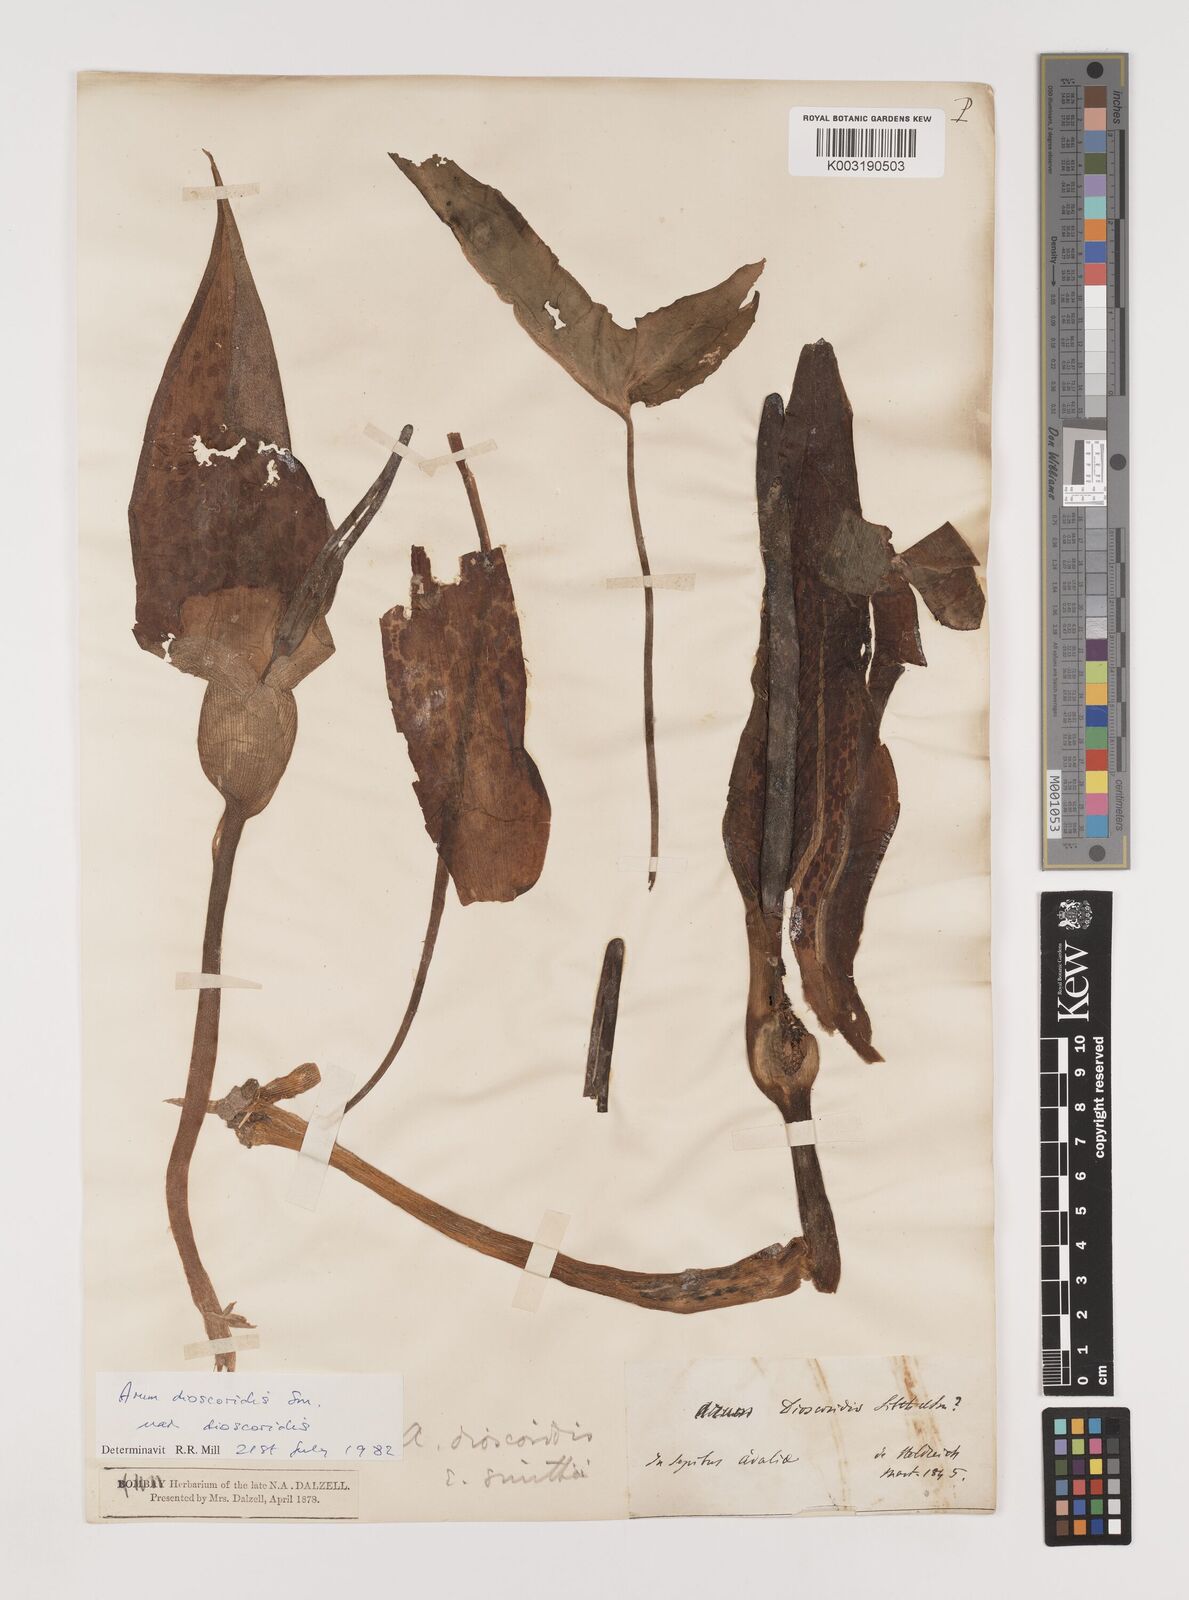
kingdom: Plantae
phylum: Tracheophyta
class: Liliopsida
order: Alismatales
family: Araceae
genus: Arum
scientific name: Arum dioscoridis
